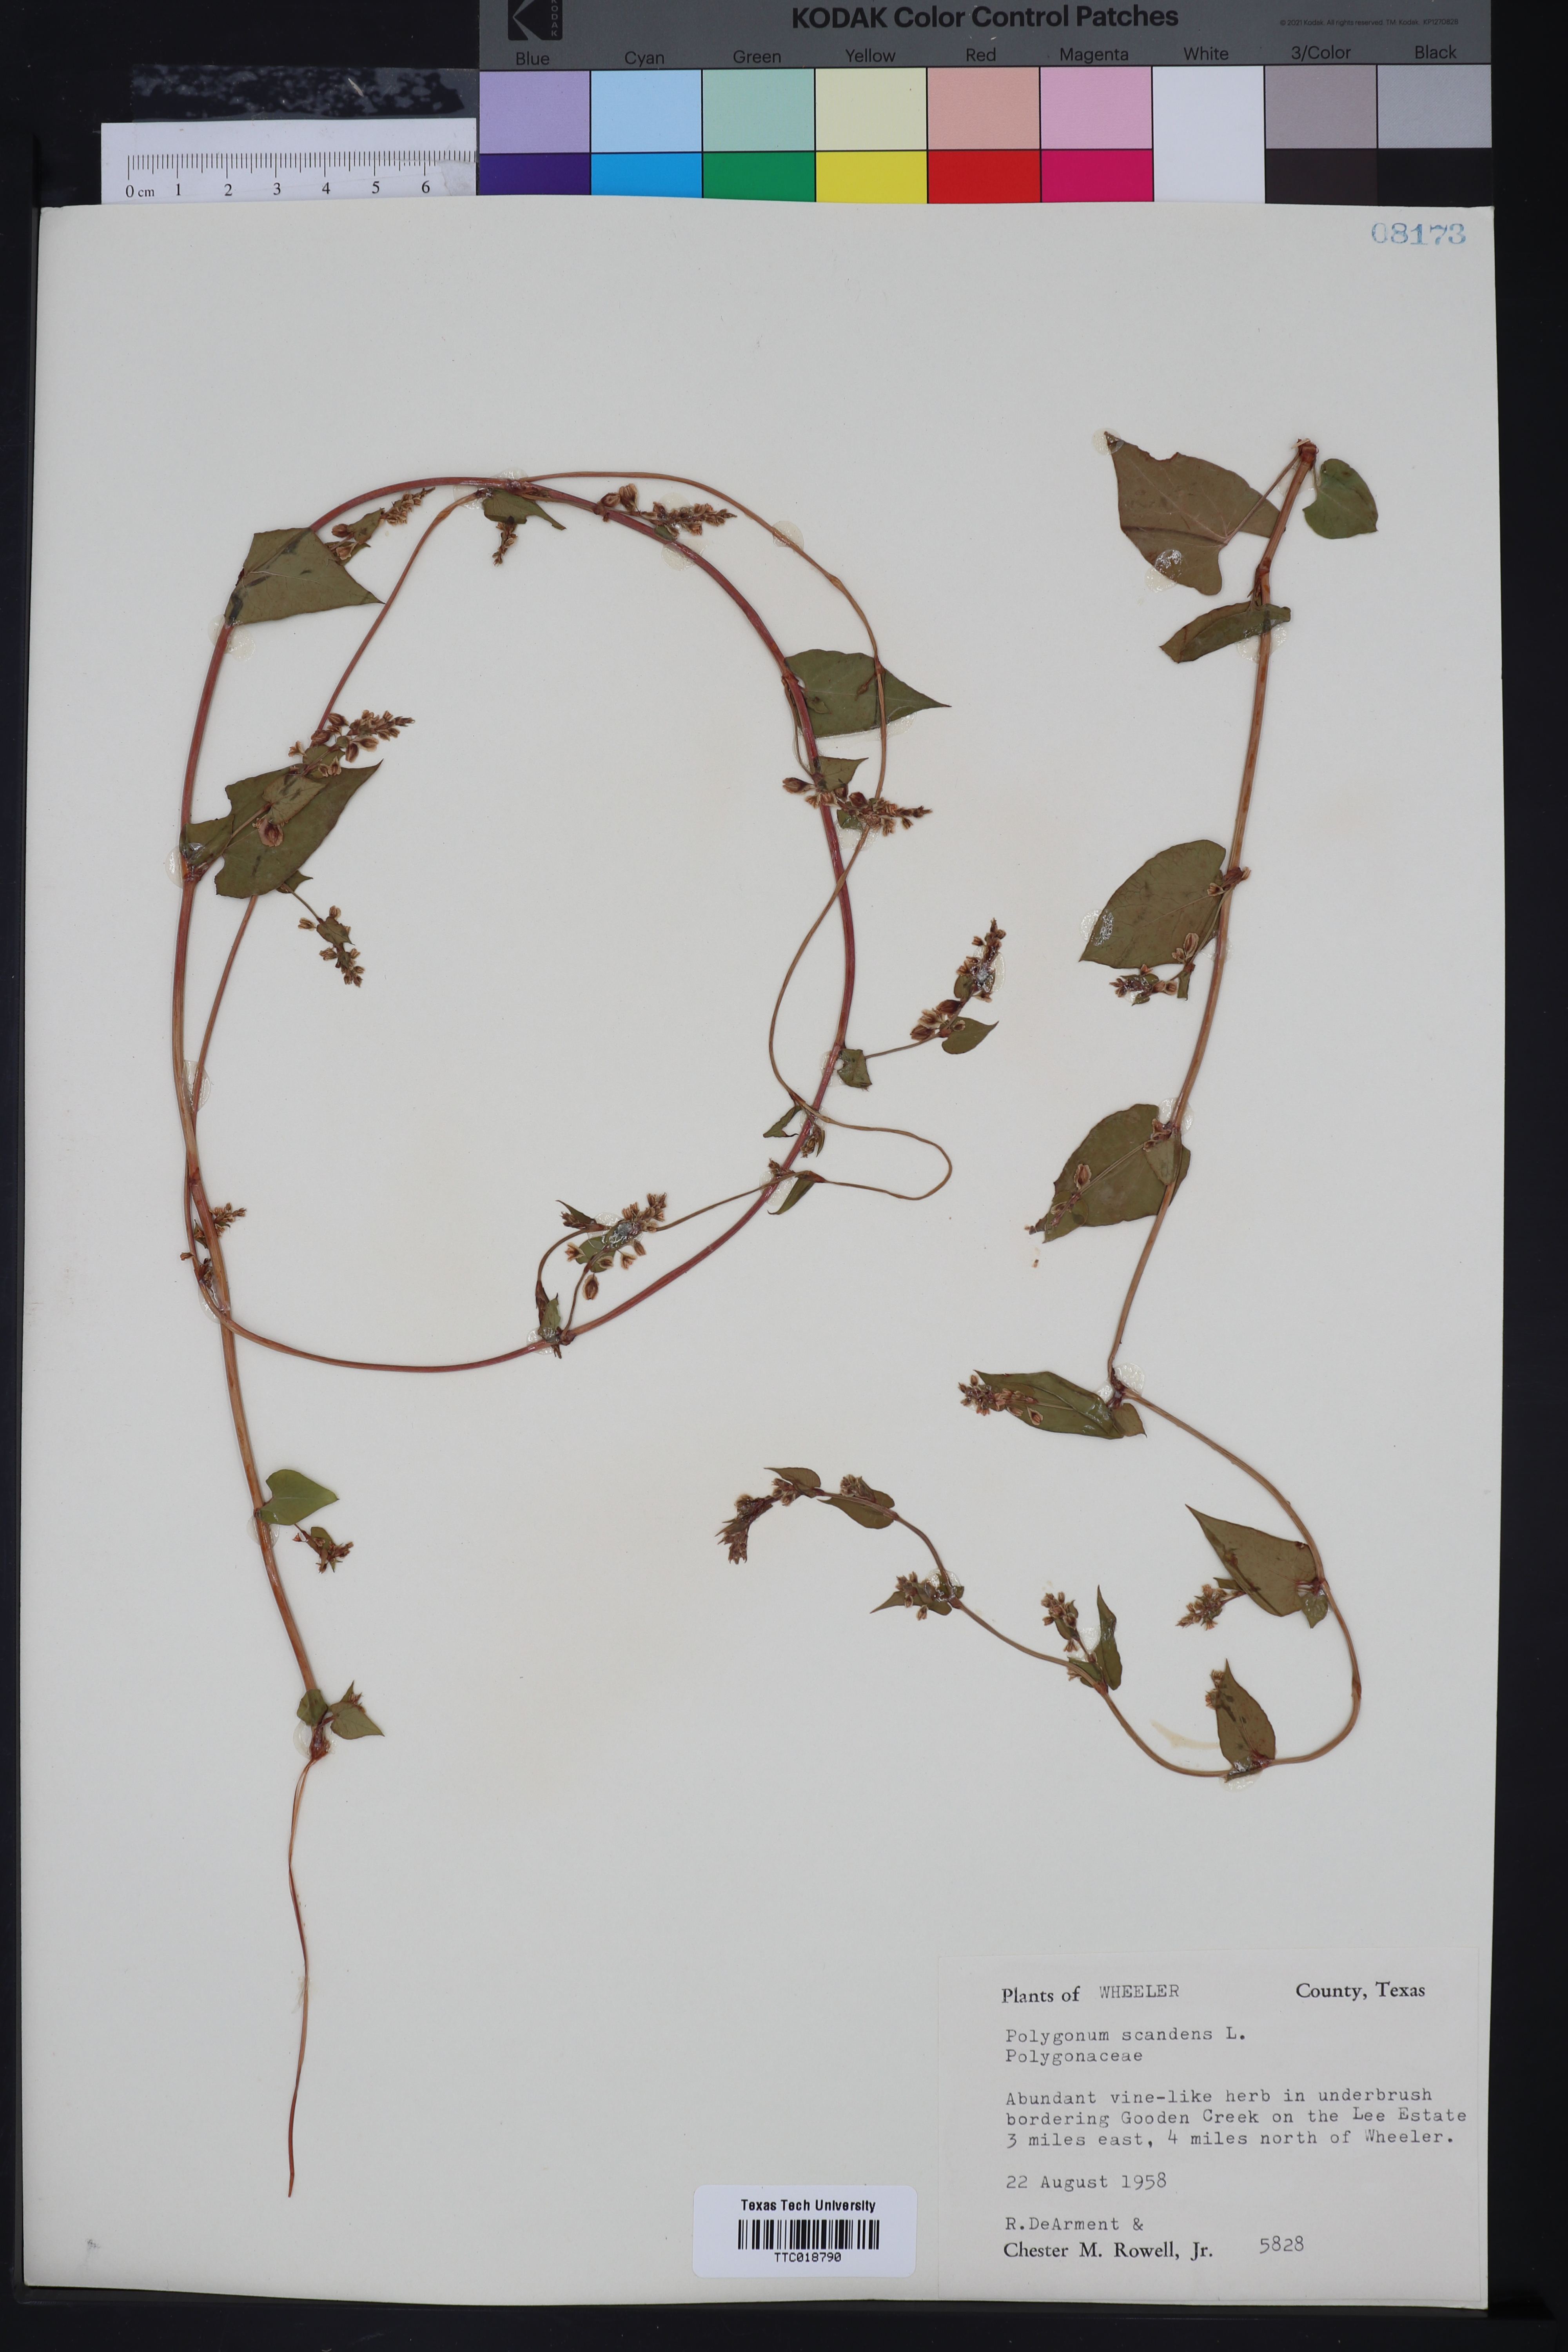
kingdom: Plantae
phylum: Tracheophyta
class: Magnoliopsida
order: Caryophyllales
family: Polygonaceae
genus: Fallopia
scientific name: Fallopia scandens
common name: Climbing false buckwheat
